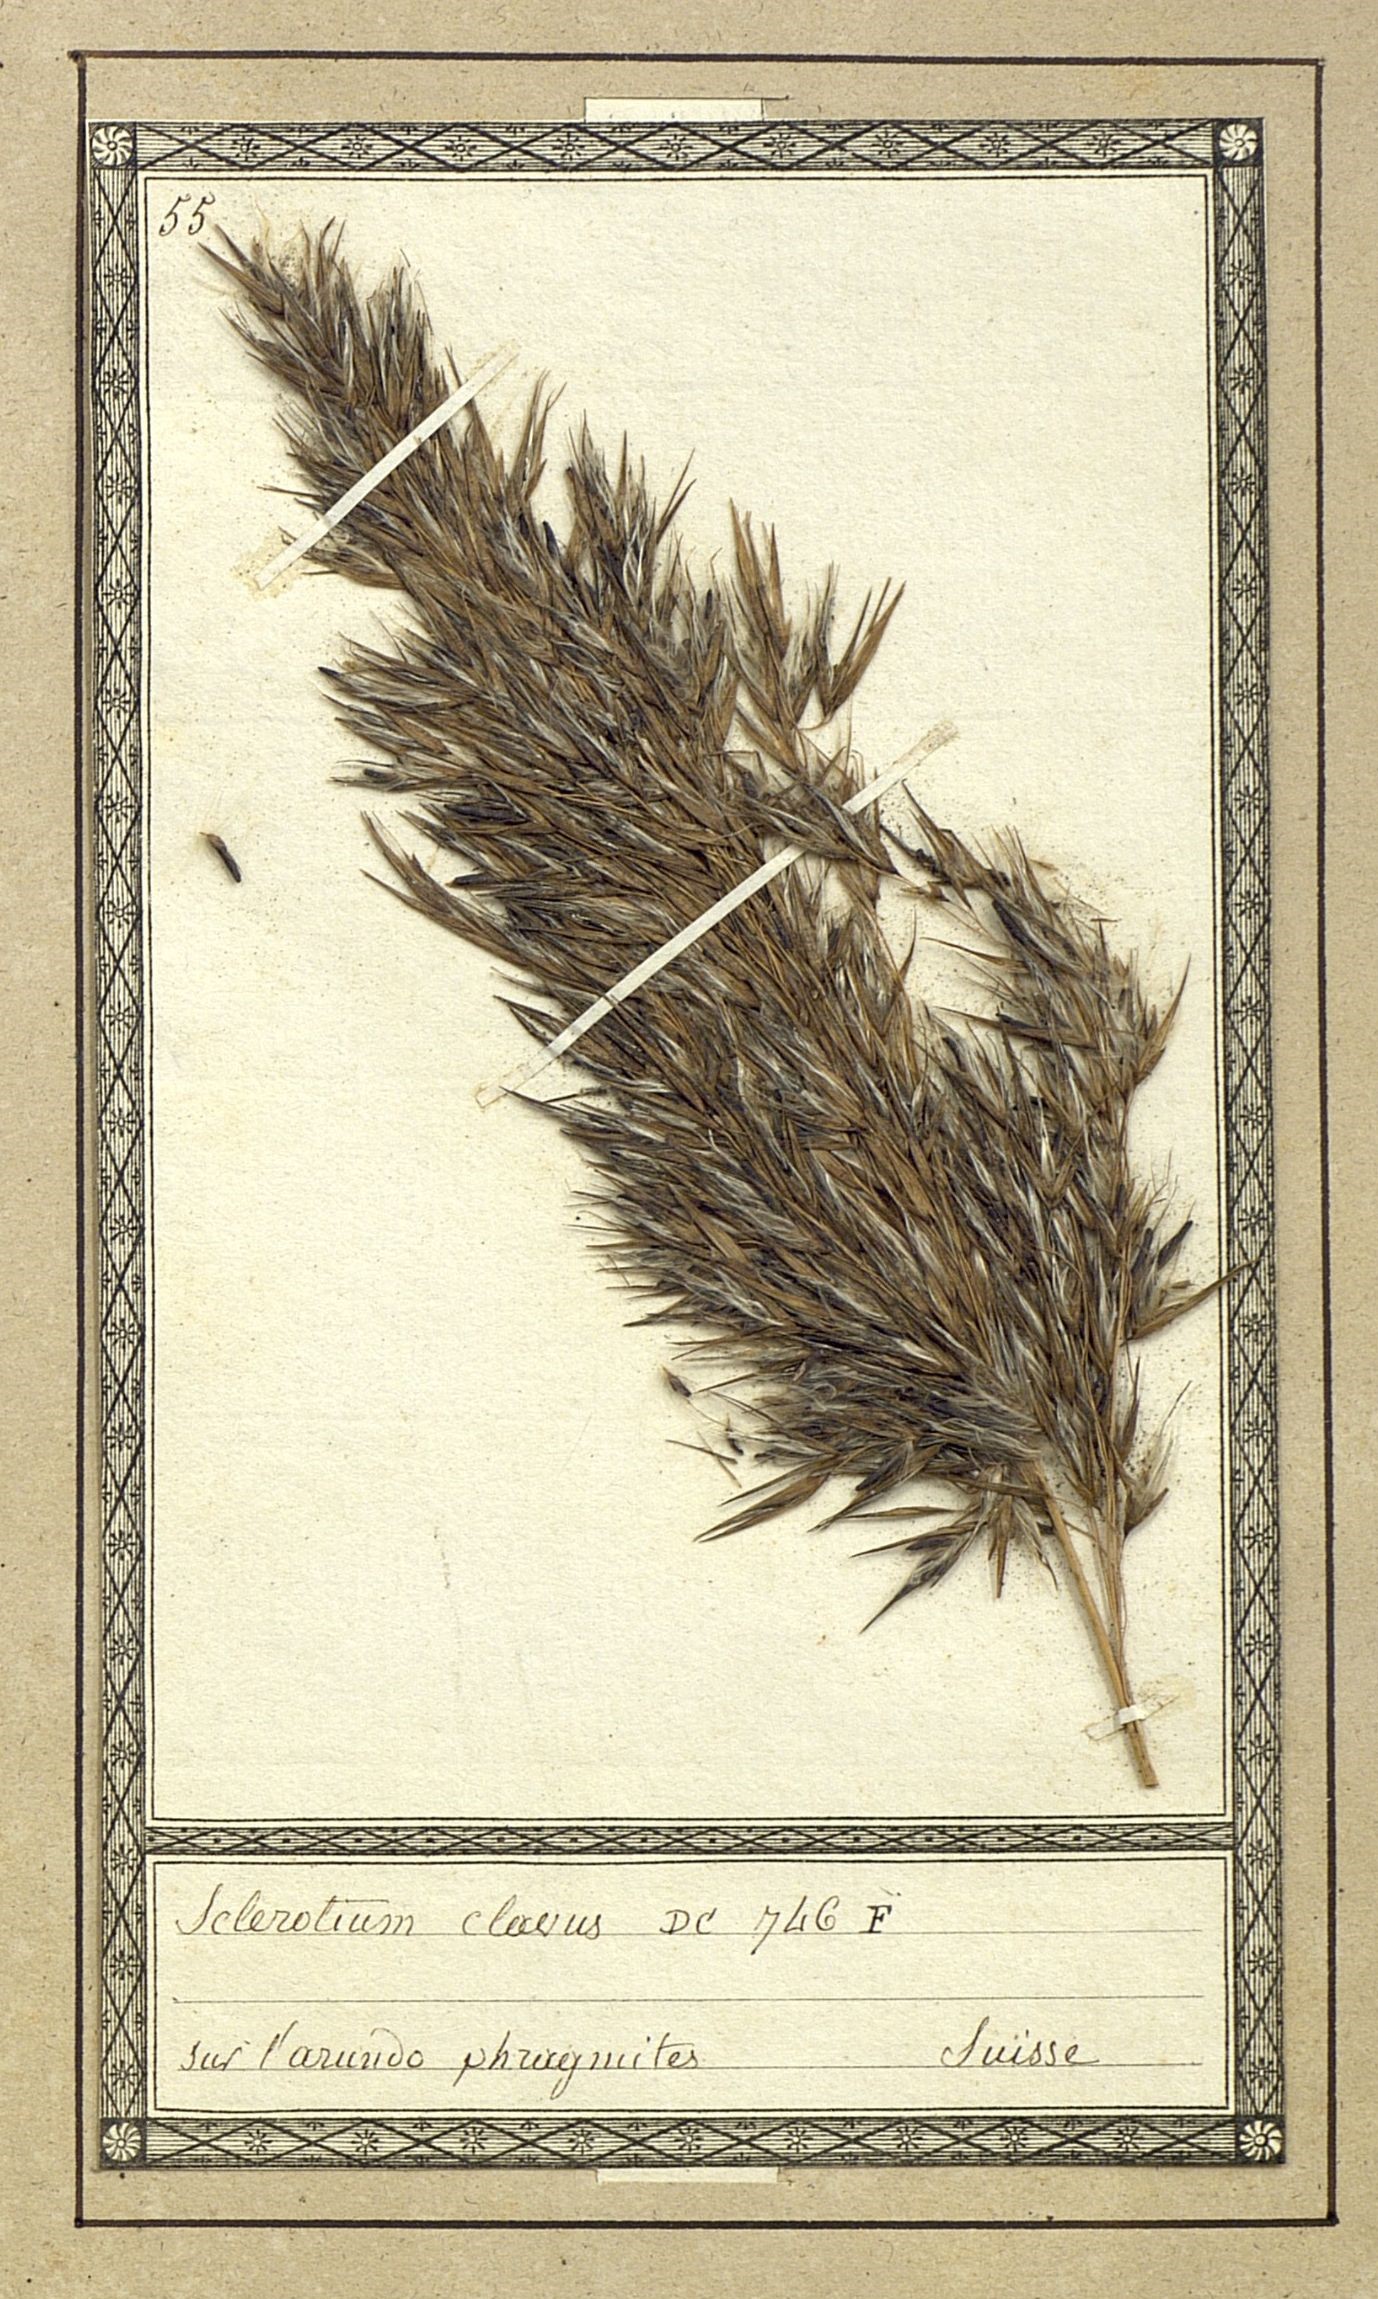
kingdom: Fungi
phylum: Ascomycota
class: Sordariomycetes
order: Hypocreales
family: Clavicipitaceae
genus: Claviceps
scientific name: Claviceps purpurea
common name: Rye ergot
